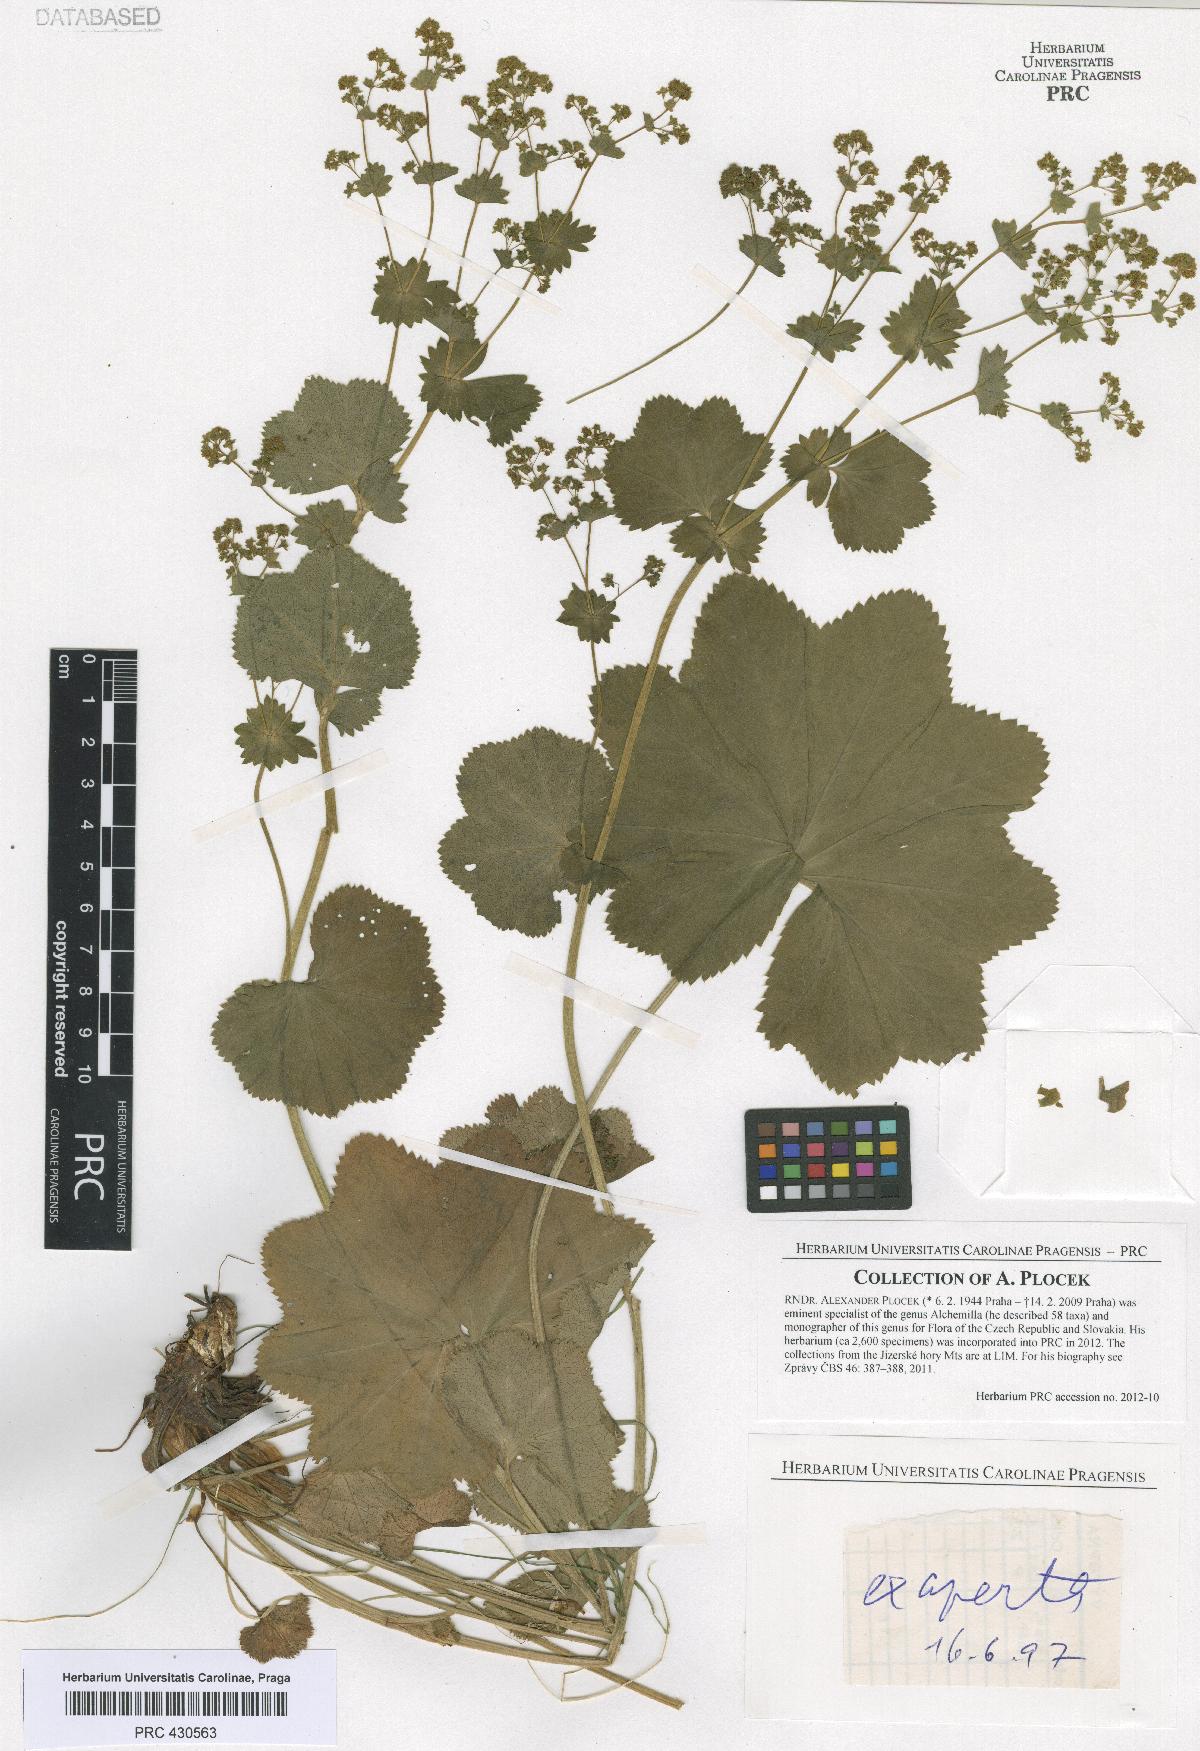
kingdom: Plantae
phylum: Tracheophyta
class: Magnoliopsida
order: Rosales
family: Rosaceae
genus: Alchemilla
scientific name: Alchemilla exaperta
